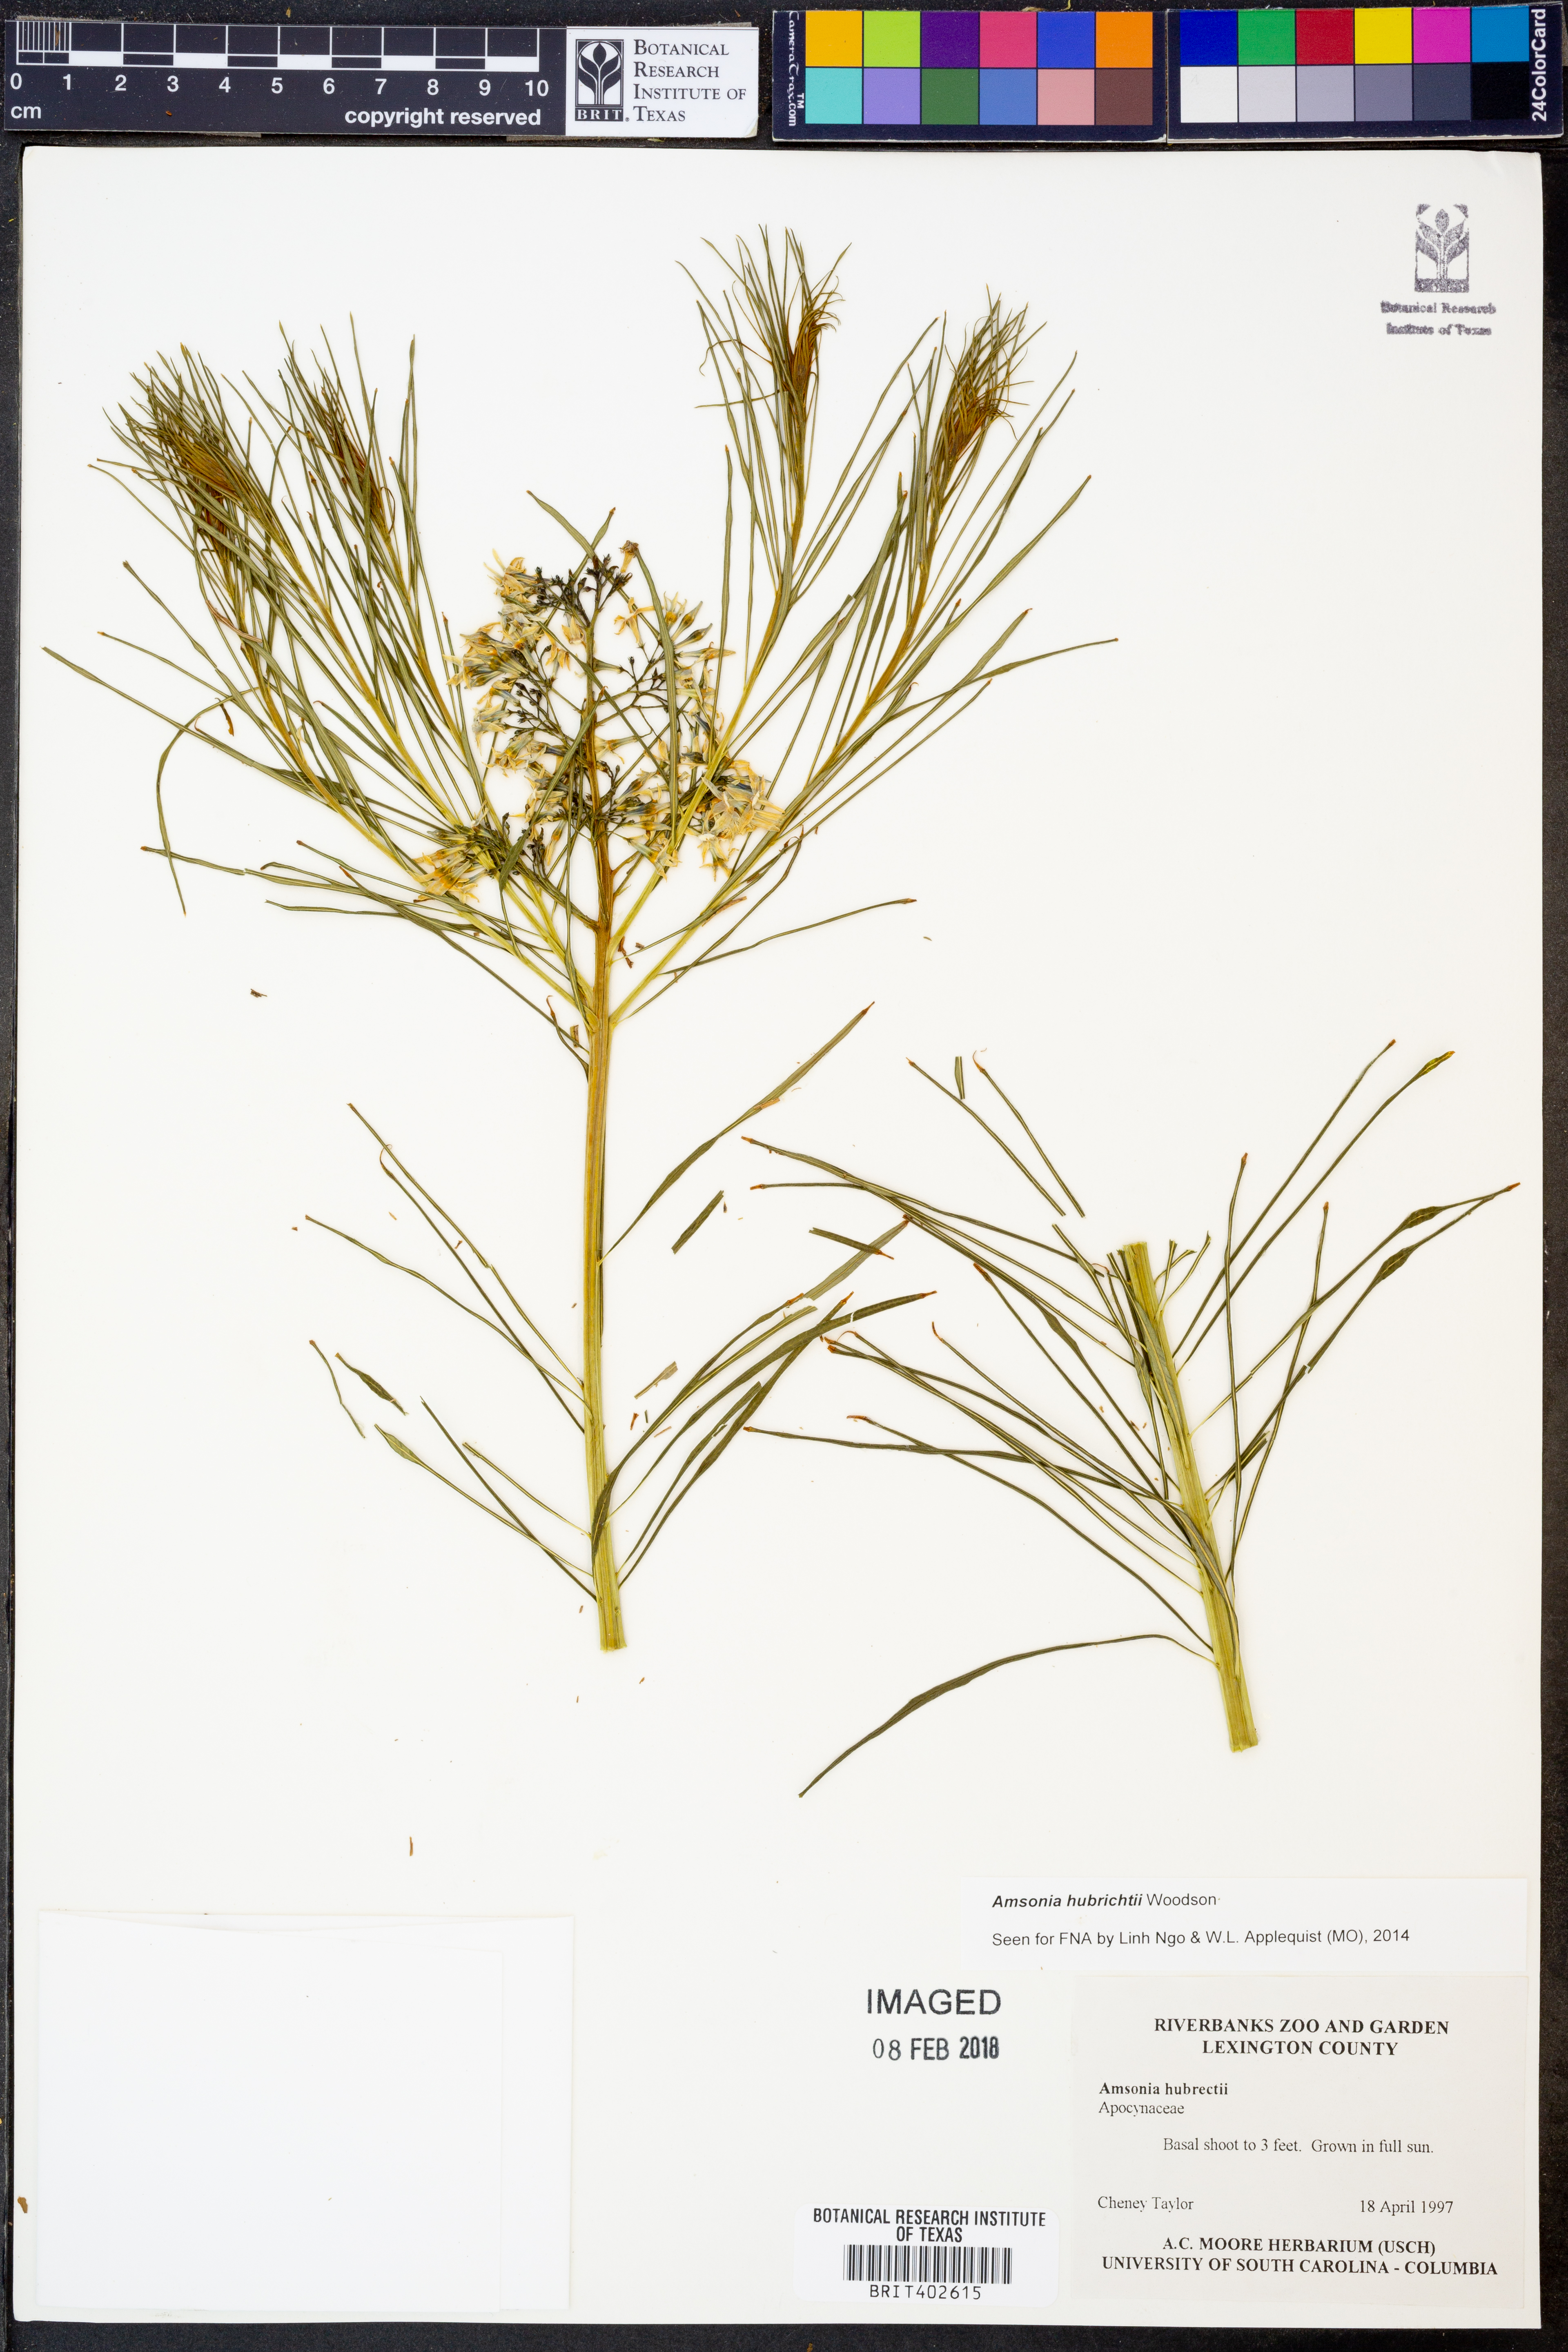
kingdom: Plantae
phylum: Tracheophyta
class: Magnoliopsida
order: Gentianales
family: Apocynaceae
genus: Amsonia
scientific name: Amsonia hubrichtii
